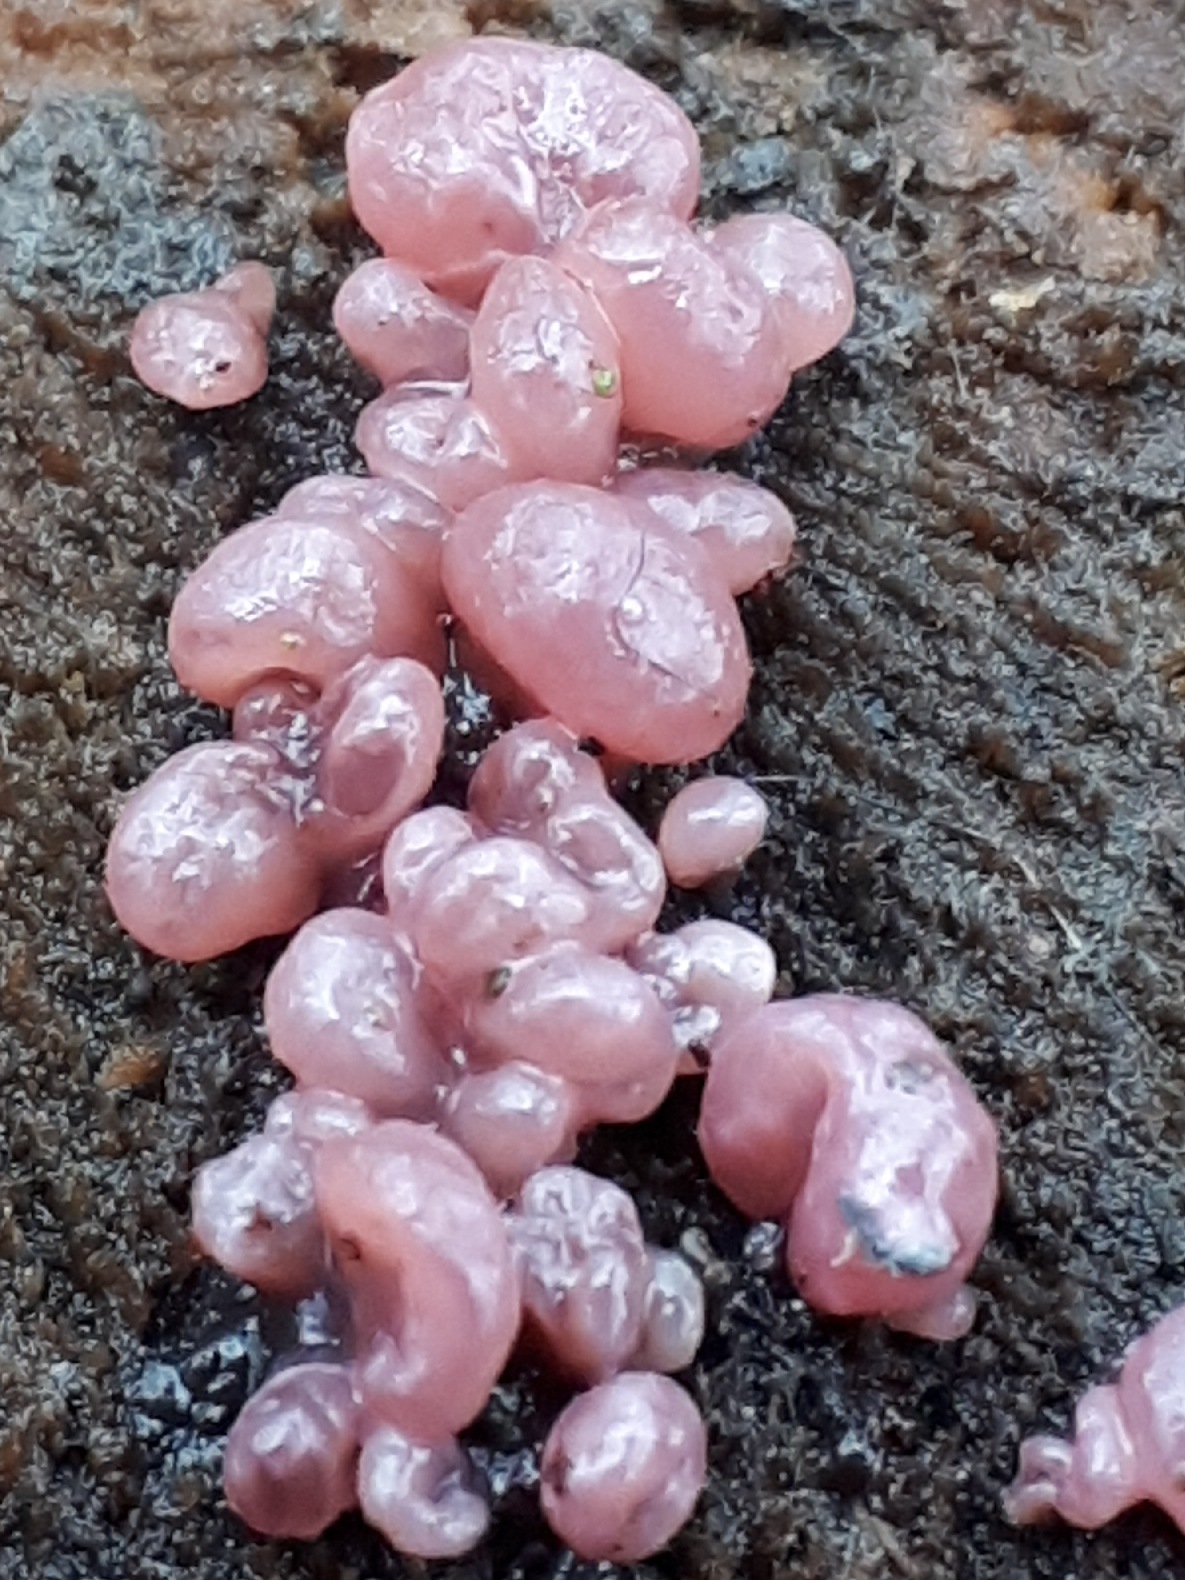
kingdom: Fungi
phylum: Ascomycota
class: Leotiomycetes
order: Helotiales
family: Gelatinodiscaceae
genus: Ascocoryne
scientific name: Ascocoryne sarcoides
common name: rødlilla sejskive
